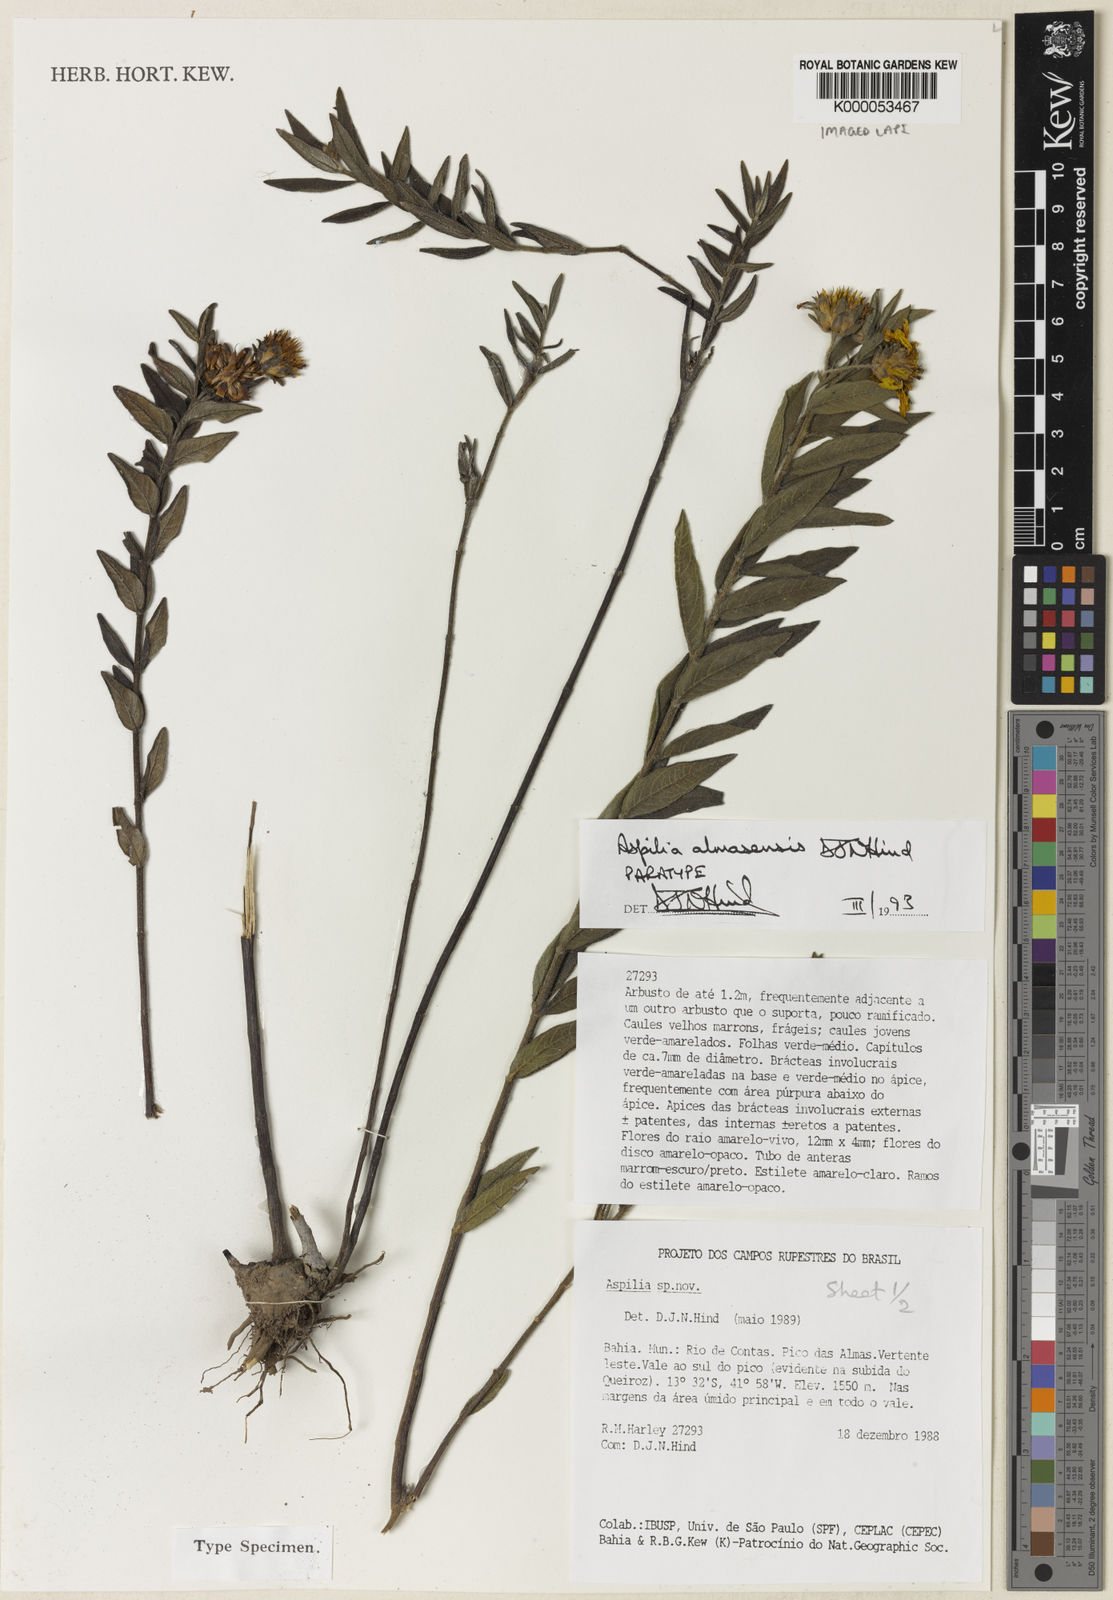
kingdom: Plantae
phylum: Tracheophyta
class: Magnoliopsida
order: Asterales
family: Asteraceae
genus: Aspilia
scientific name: Aspilia almasensis
